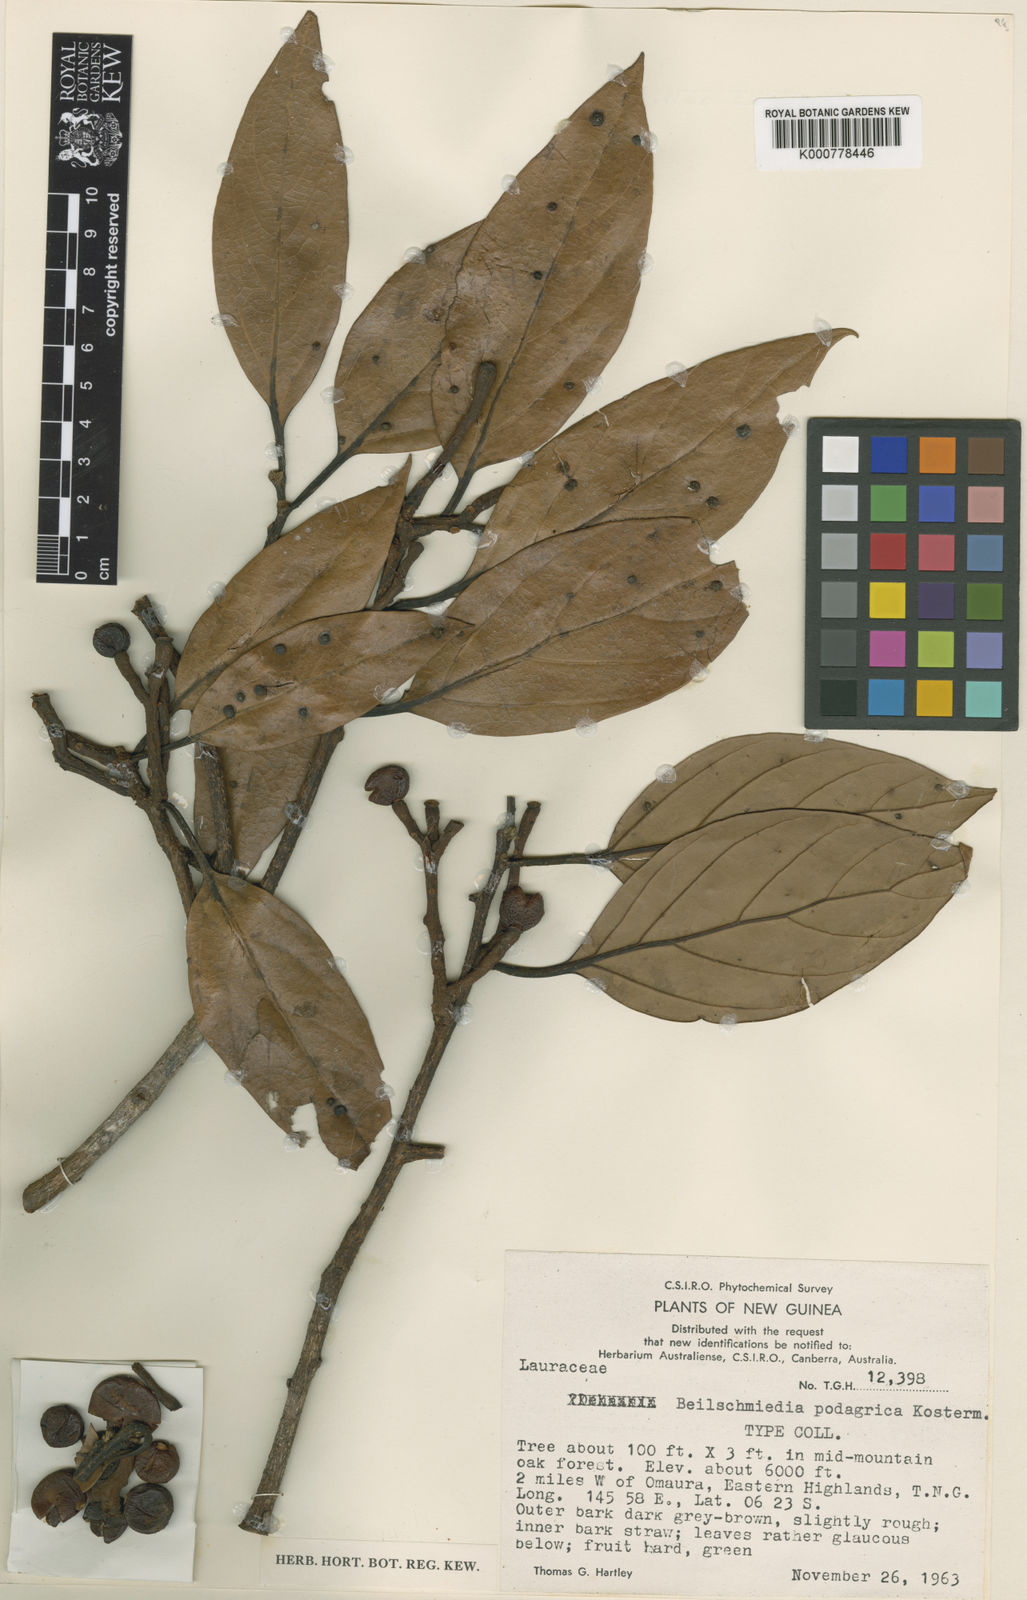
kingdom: Plantae
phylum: Tracheophyta
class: Magnoliopsida
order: Laurales
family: Lauraceae
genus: Beilschmiedia
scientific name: Beilschmiedia podagrica
